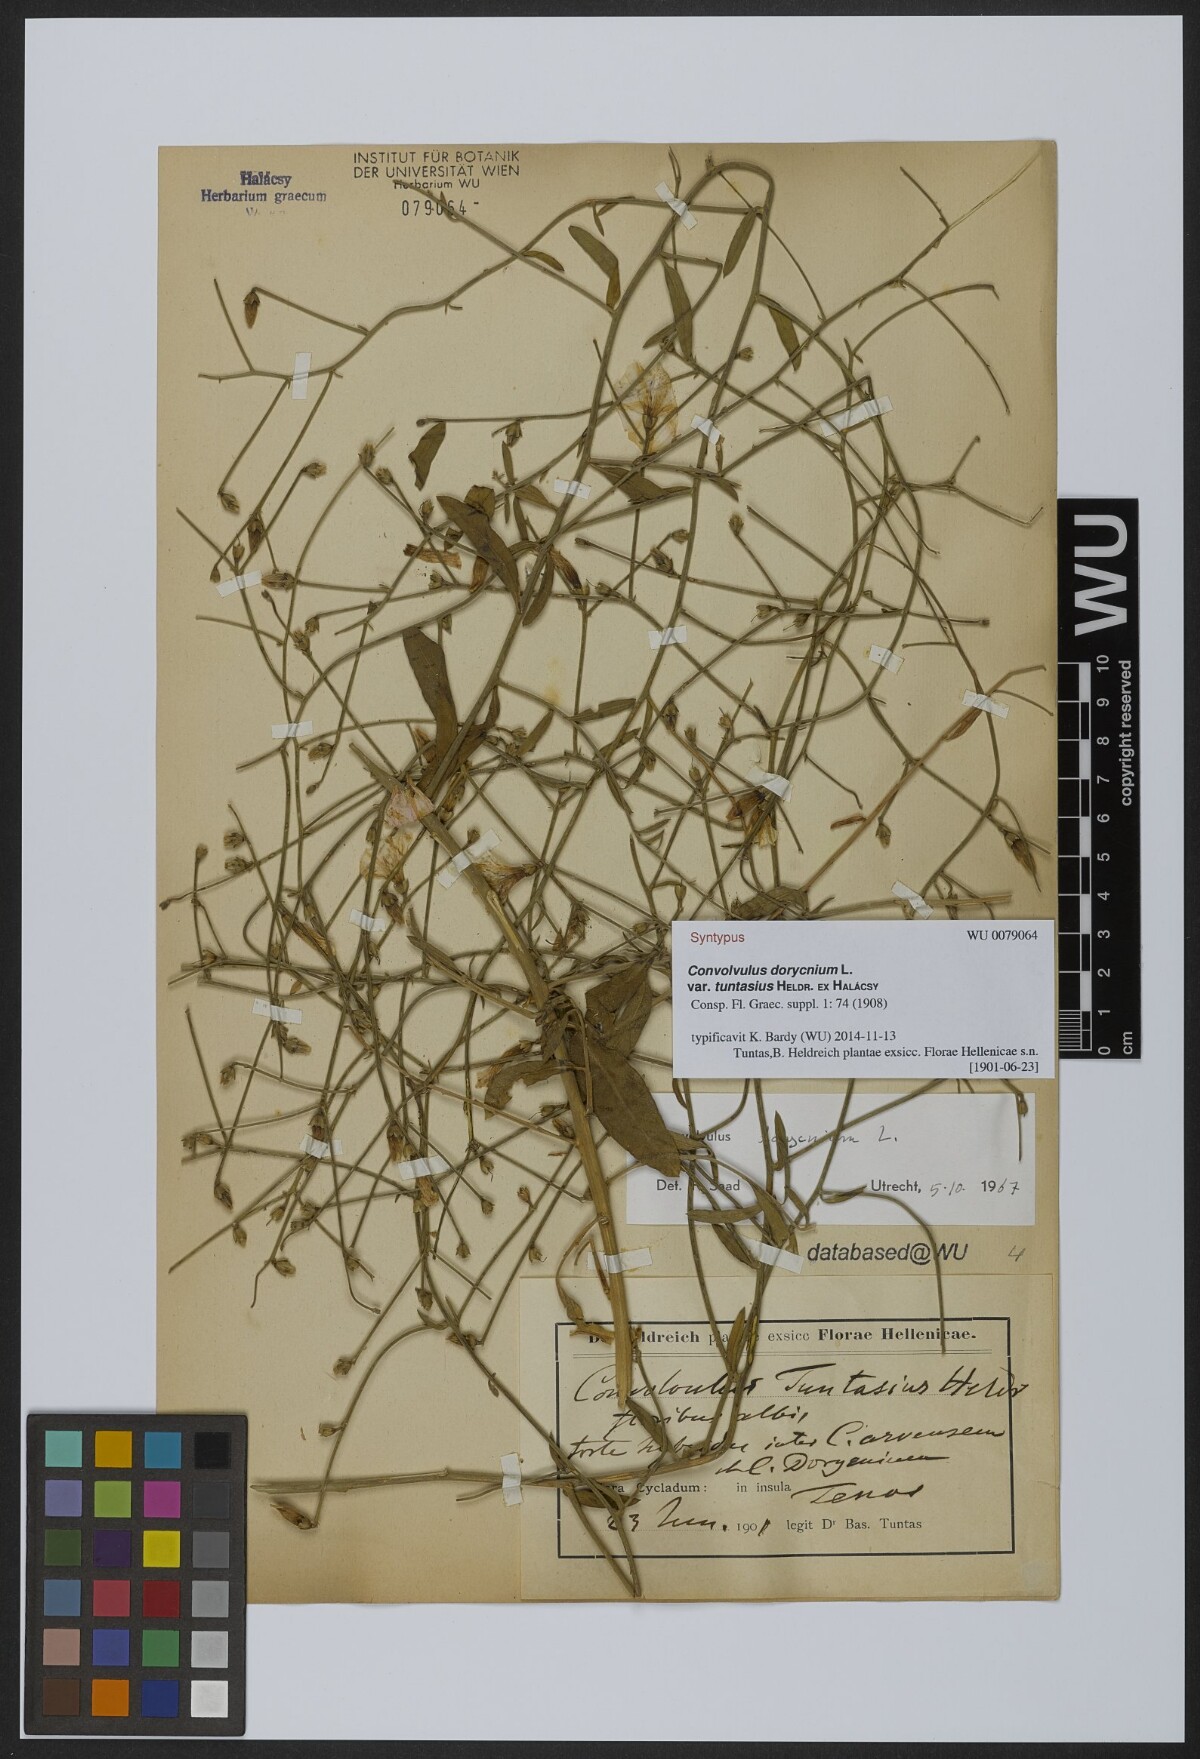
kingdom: Plantae
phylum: Tracheophyta
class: Magnoliopsida
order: Solanales
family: Convolvulaceae
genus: Convolvulus
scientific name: Convolvulus dorycnium
